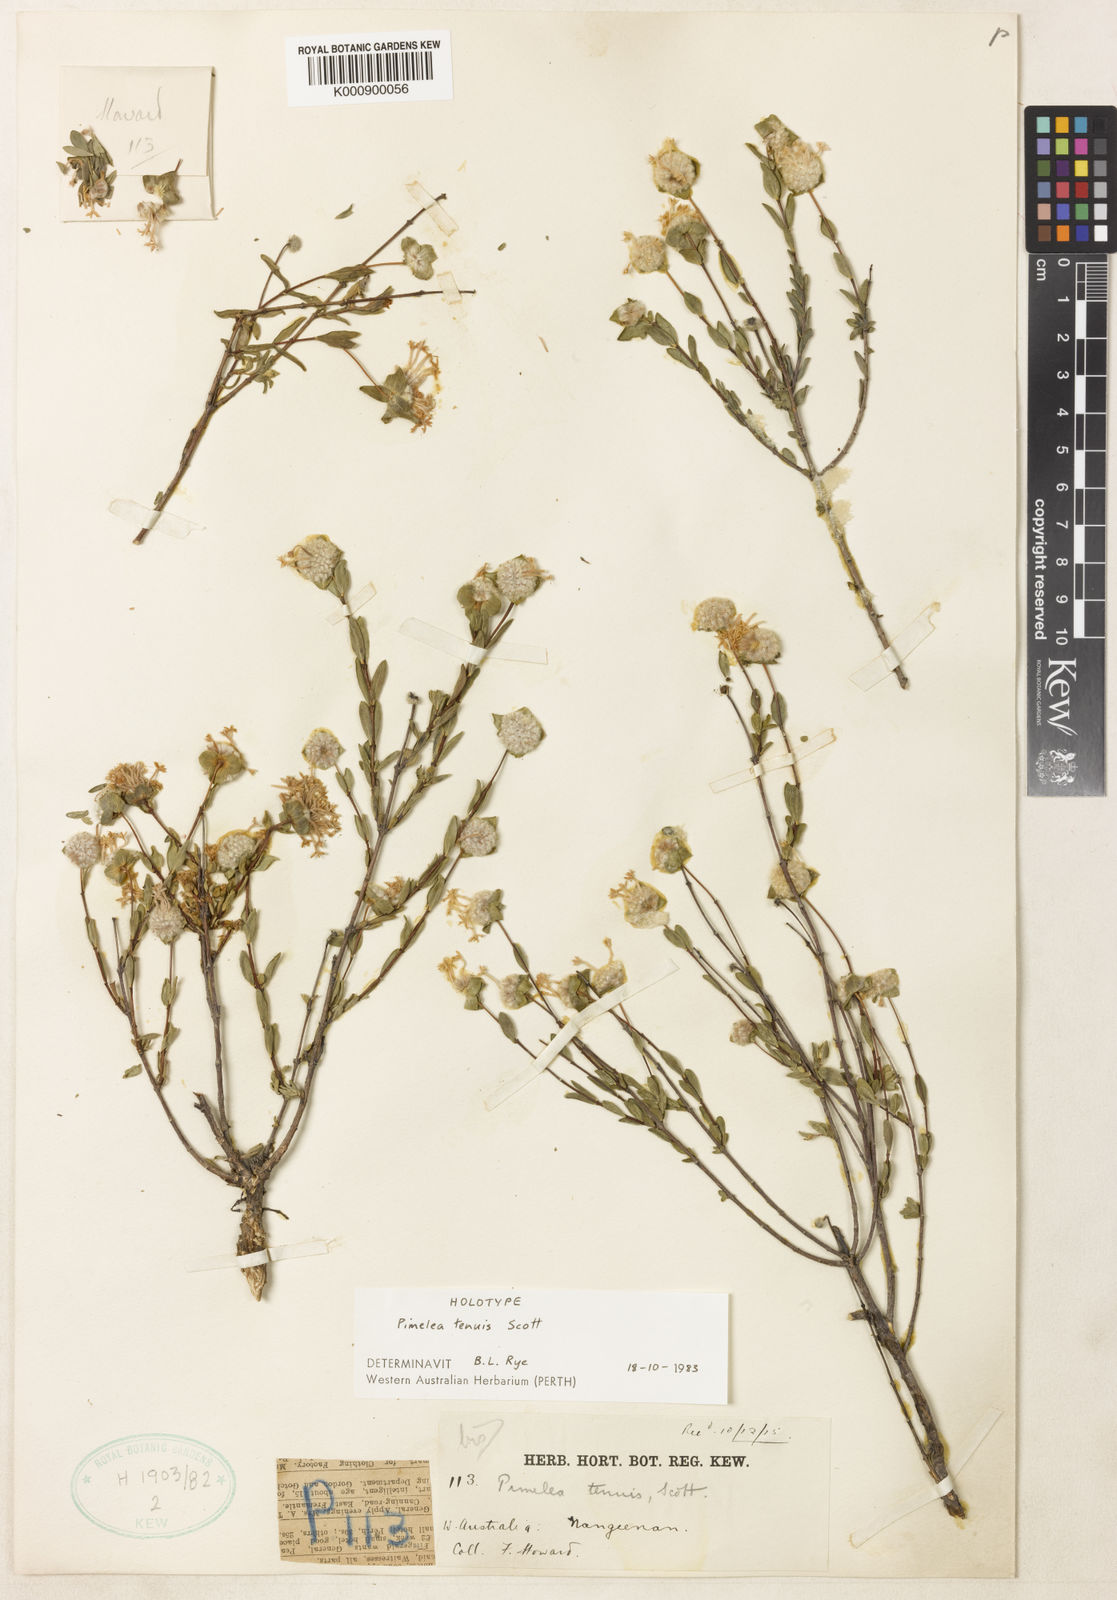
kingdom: Plantae
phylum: Tracheophyta
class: Magnoliopsida
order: Malvales
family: Thymelaeaceae
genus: Pimelea
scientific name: Pimelea angustifolia
